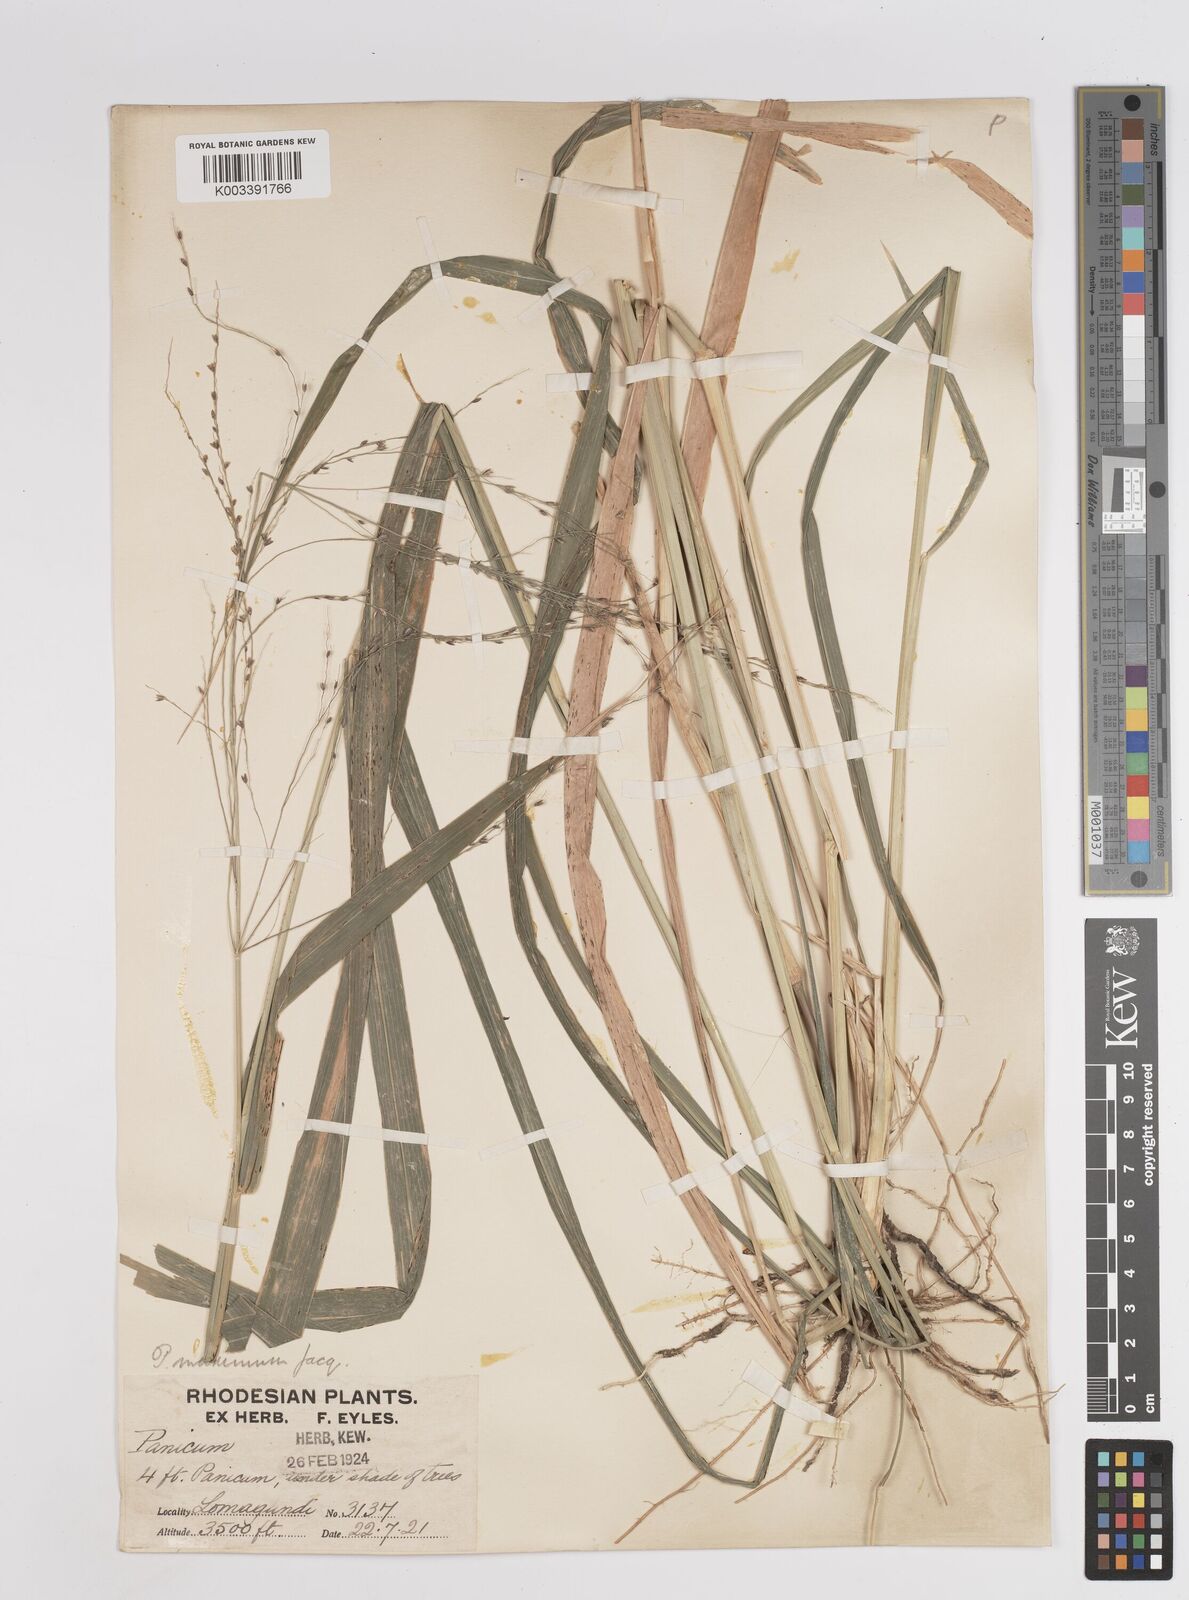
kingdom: Plantae
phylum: Tracheophyta
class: Liliopsida
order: Poales
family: Poaceae
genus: Megathyrsus
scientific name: Megathyrsus maximus
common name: Guineagrass
